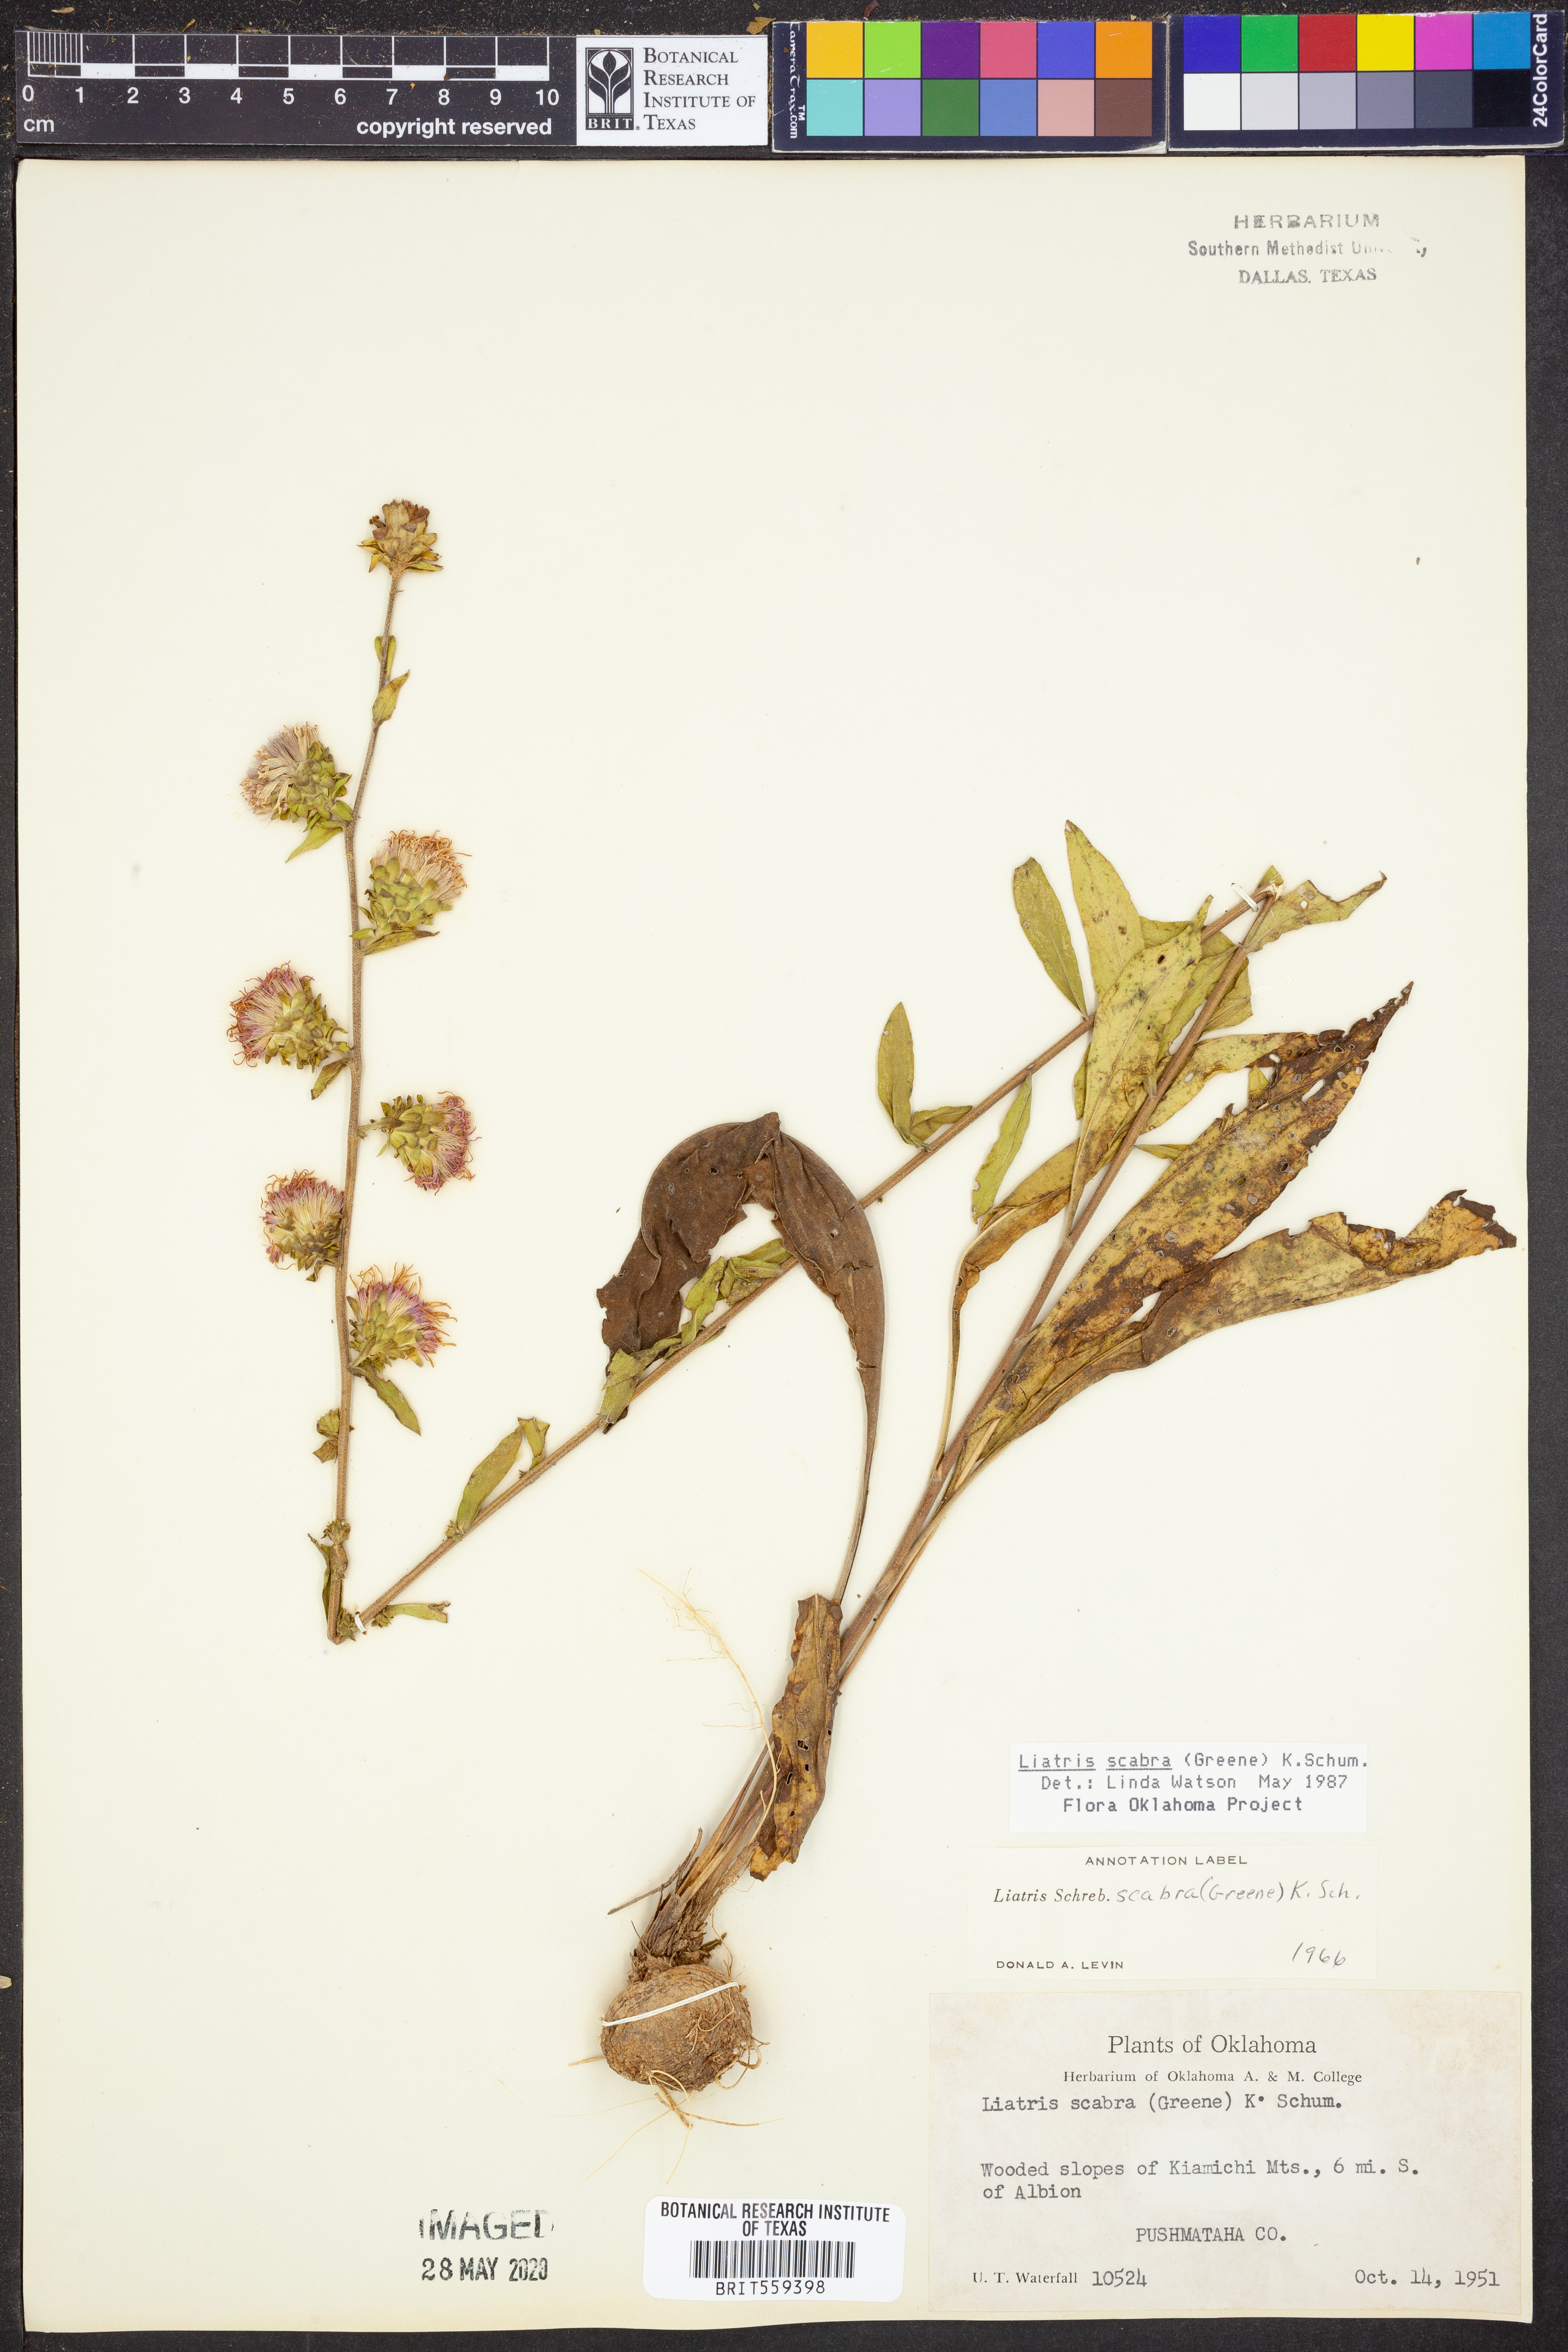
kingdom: Plantae
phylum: Tracheophyta
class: Magnoliopsida
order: Asterales
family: Asteraceae
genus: Liatris
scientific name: Liatris spheroidea
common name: Spherical blazing-star
